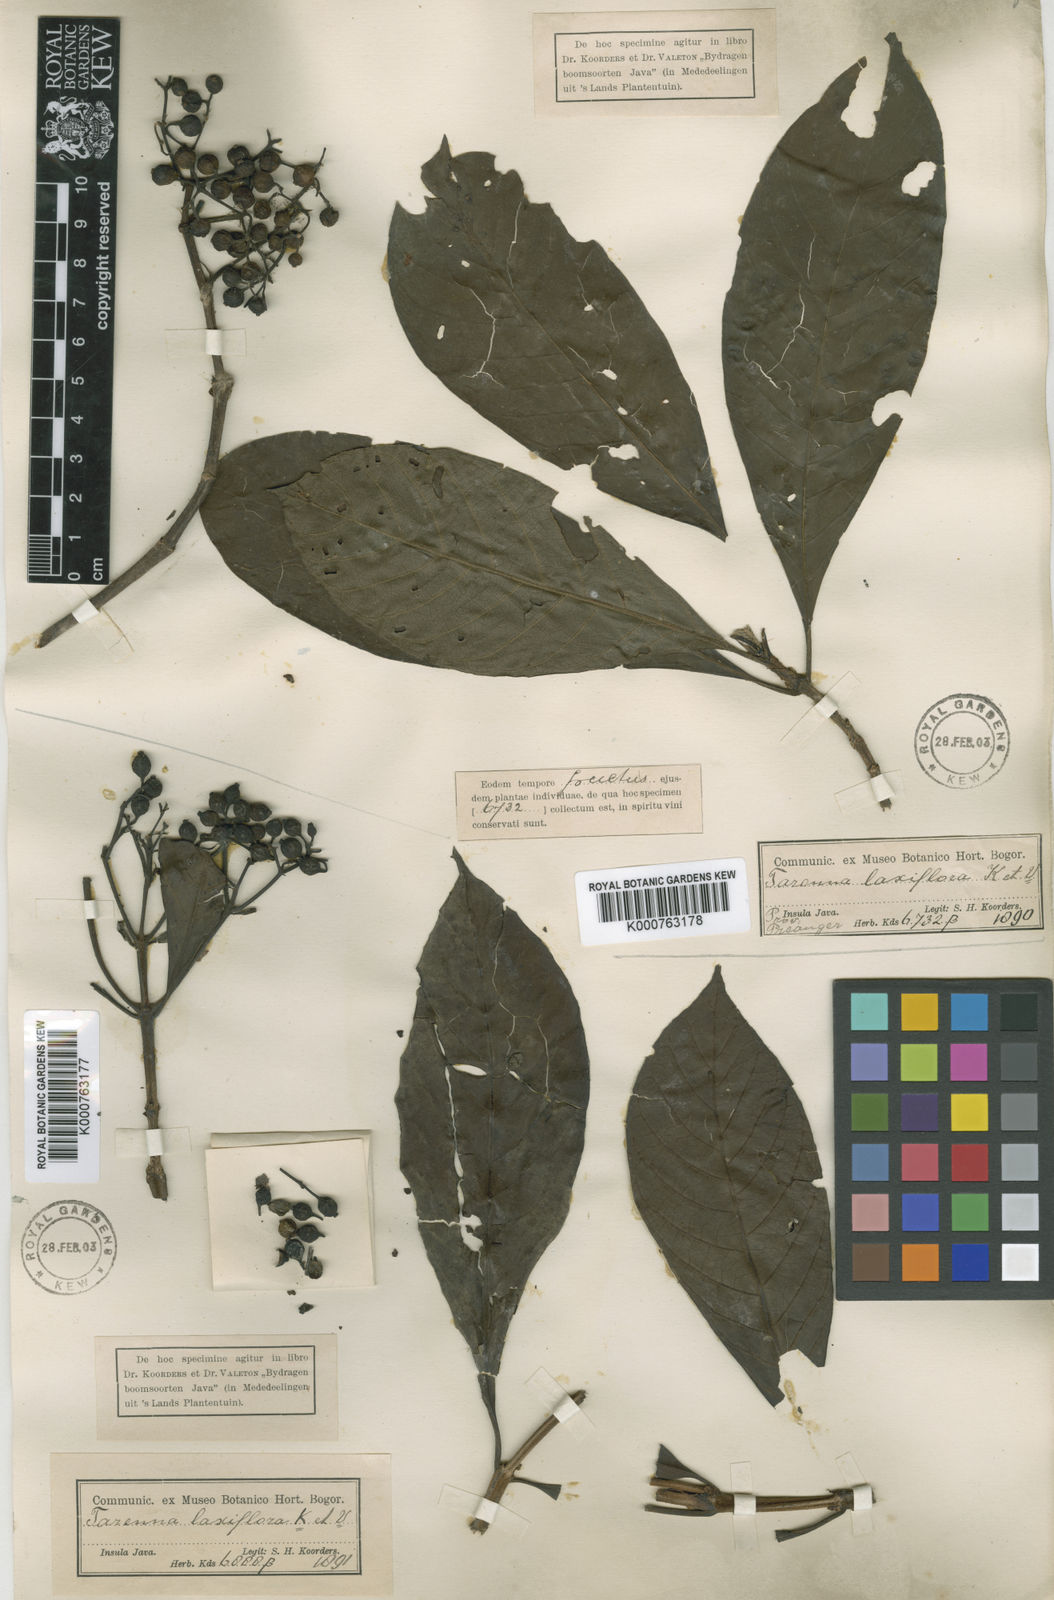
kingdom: Plantae
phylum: Tracheophyta
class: Magnoliopsida
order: Gentianales
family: Rubiaceae
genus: Tarenna
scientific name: Tarenna confusa
